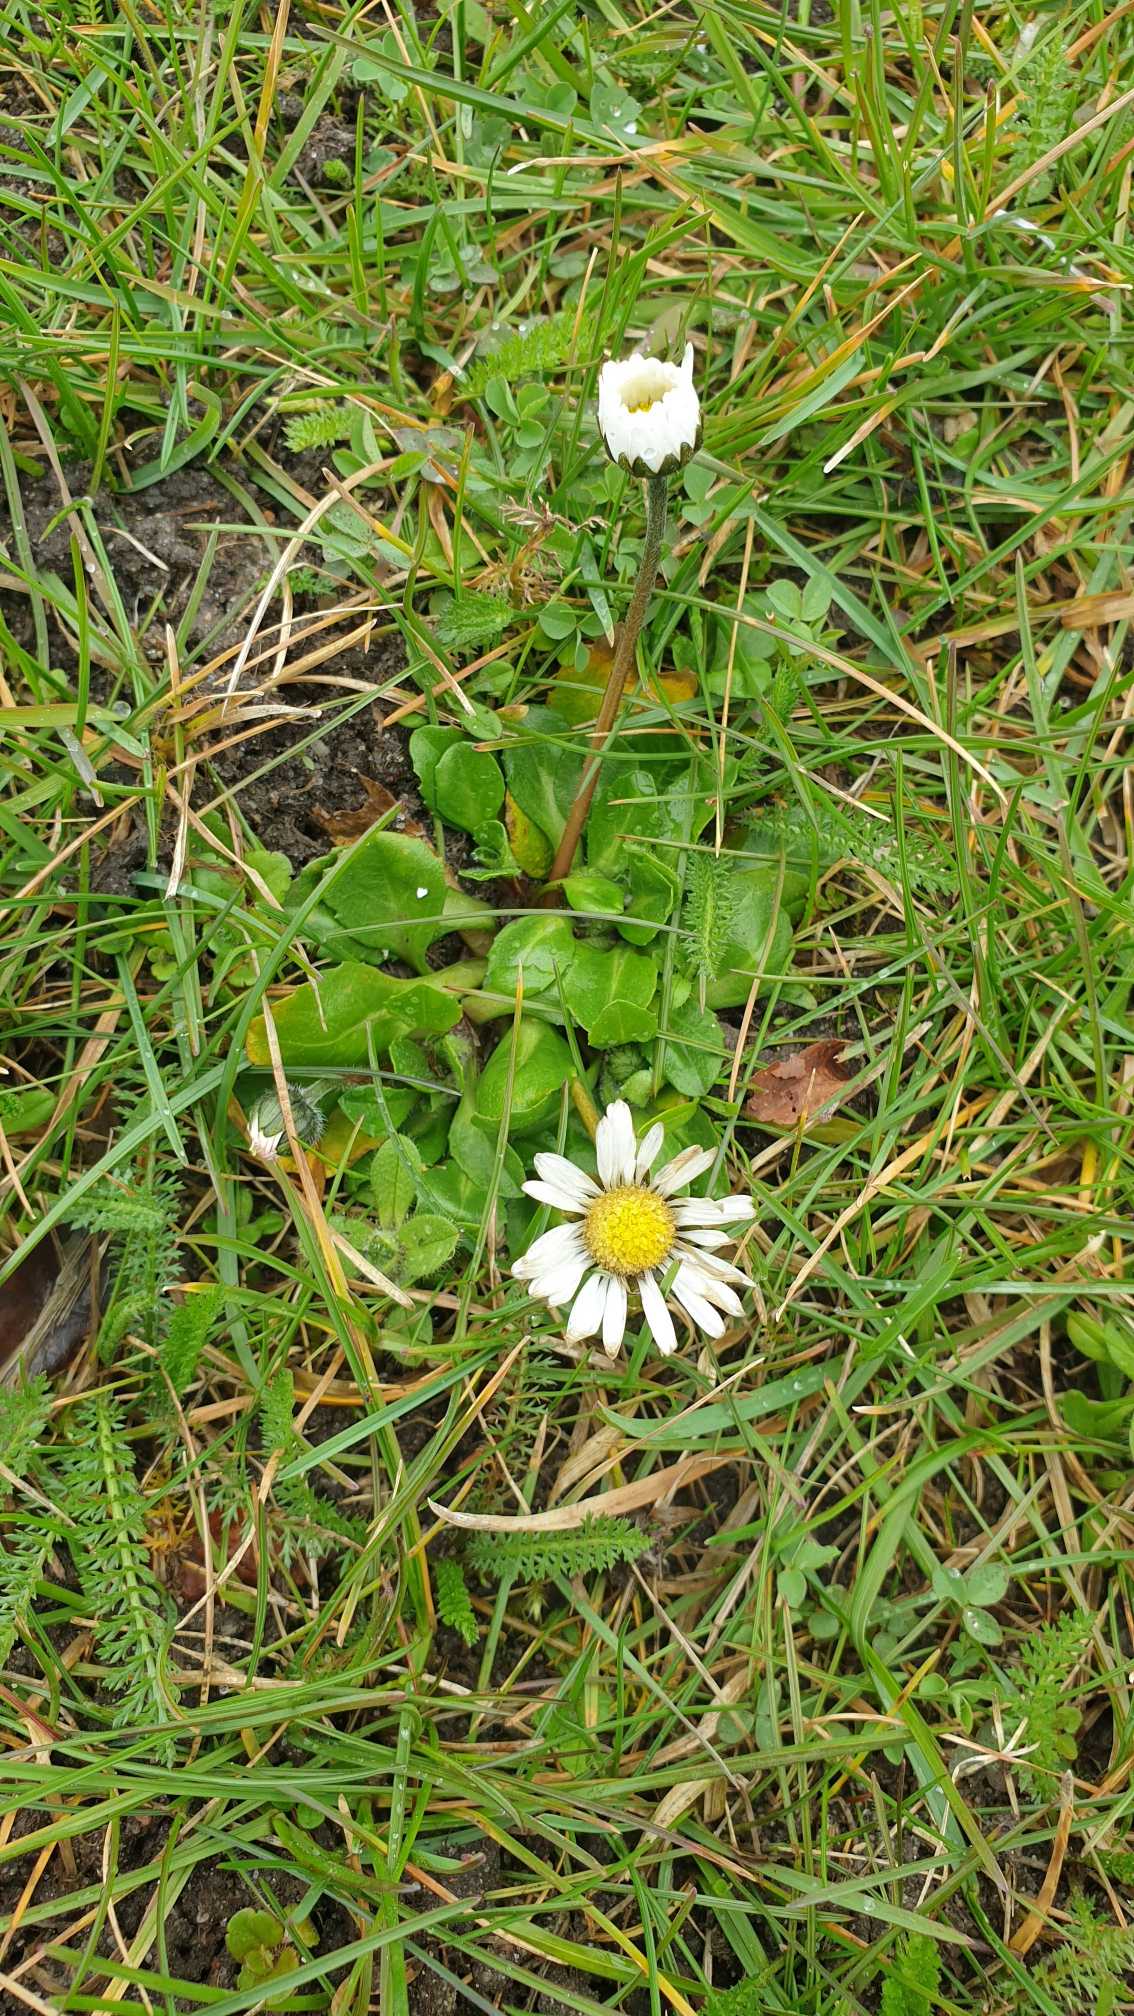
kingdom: Plantae
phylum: Tracheophyta
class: Magnoliopsida
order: Asterales
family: Asteraceae
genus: Bellis
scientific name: Bellis perennis
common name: Tusindfryd
